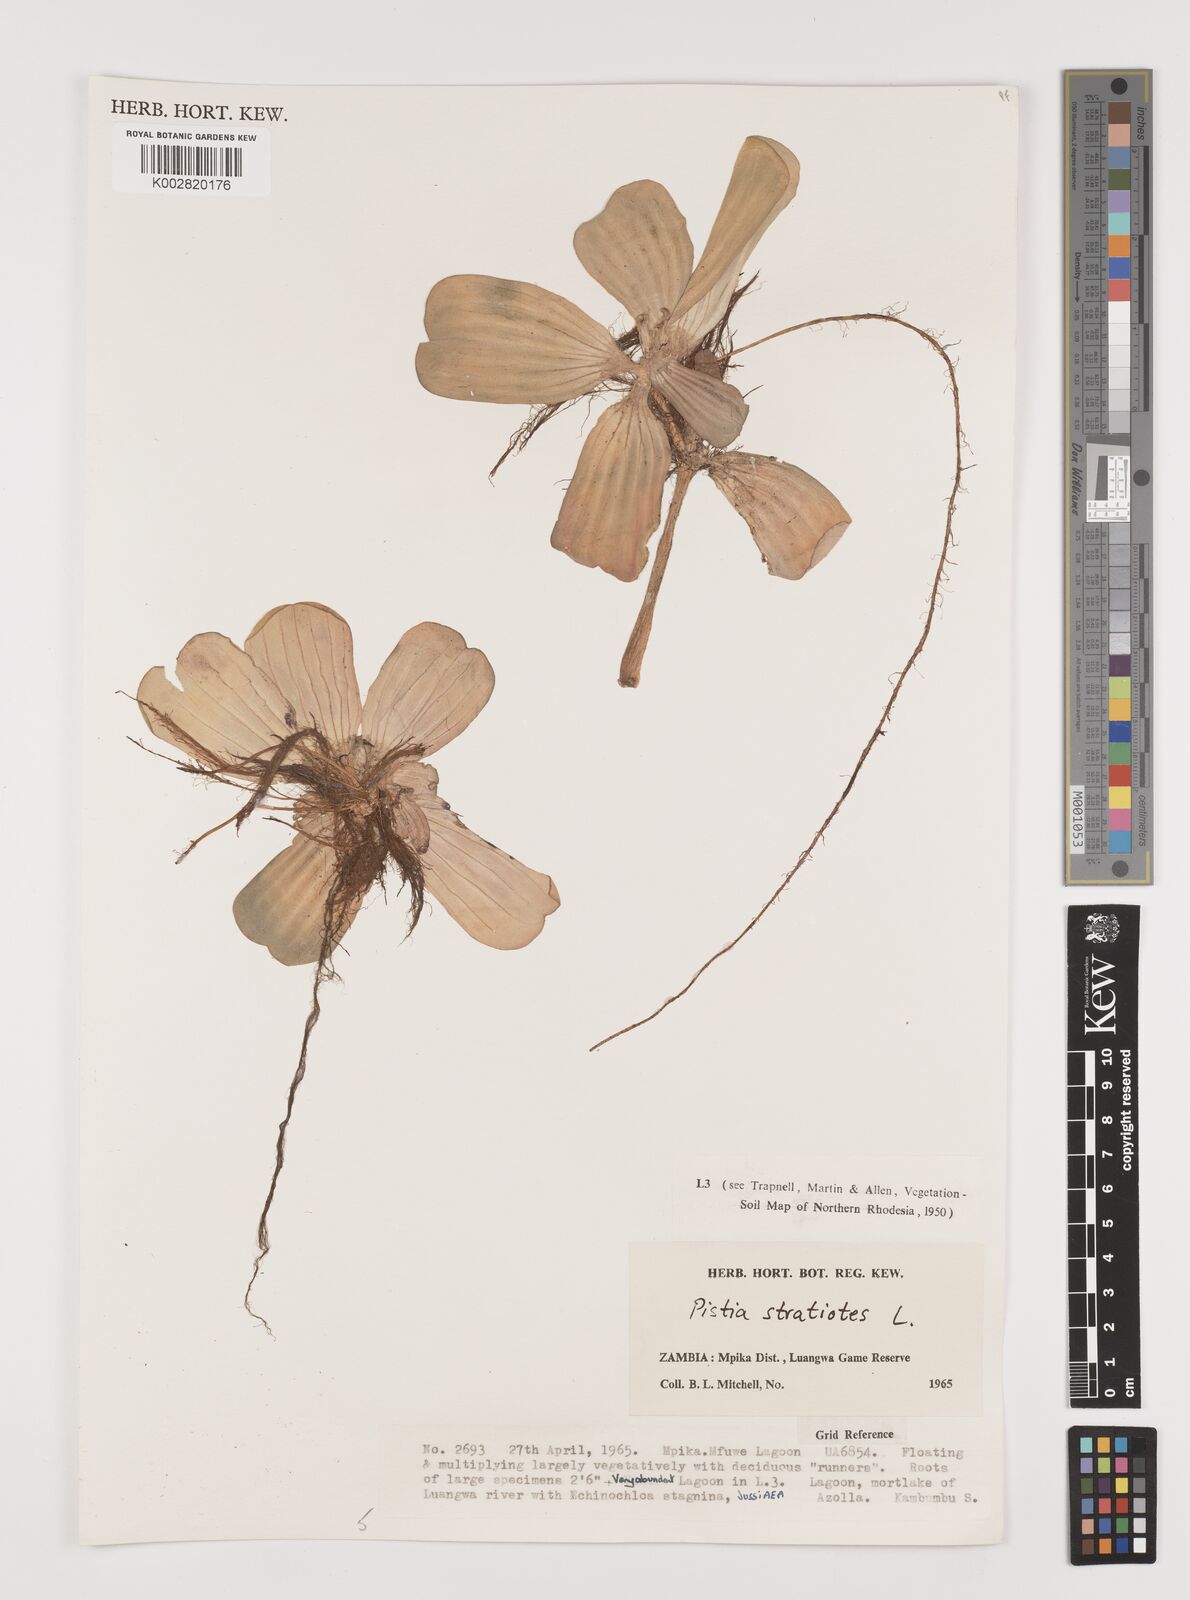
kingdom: Plantae
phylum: Tracheophyta
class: Liliopsida
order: Alismatales
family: Araceae
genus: Pistia
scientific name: Pistia stratiotes
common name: Water lettuce
